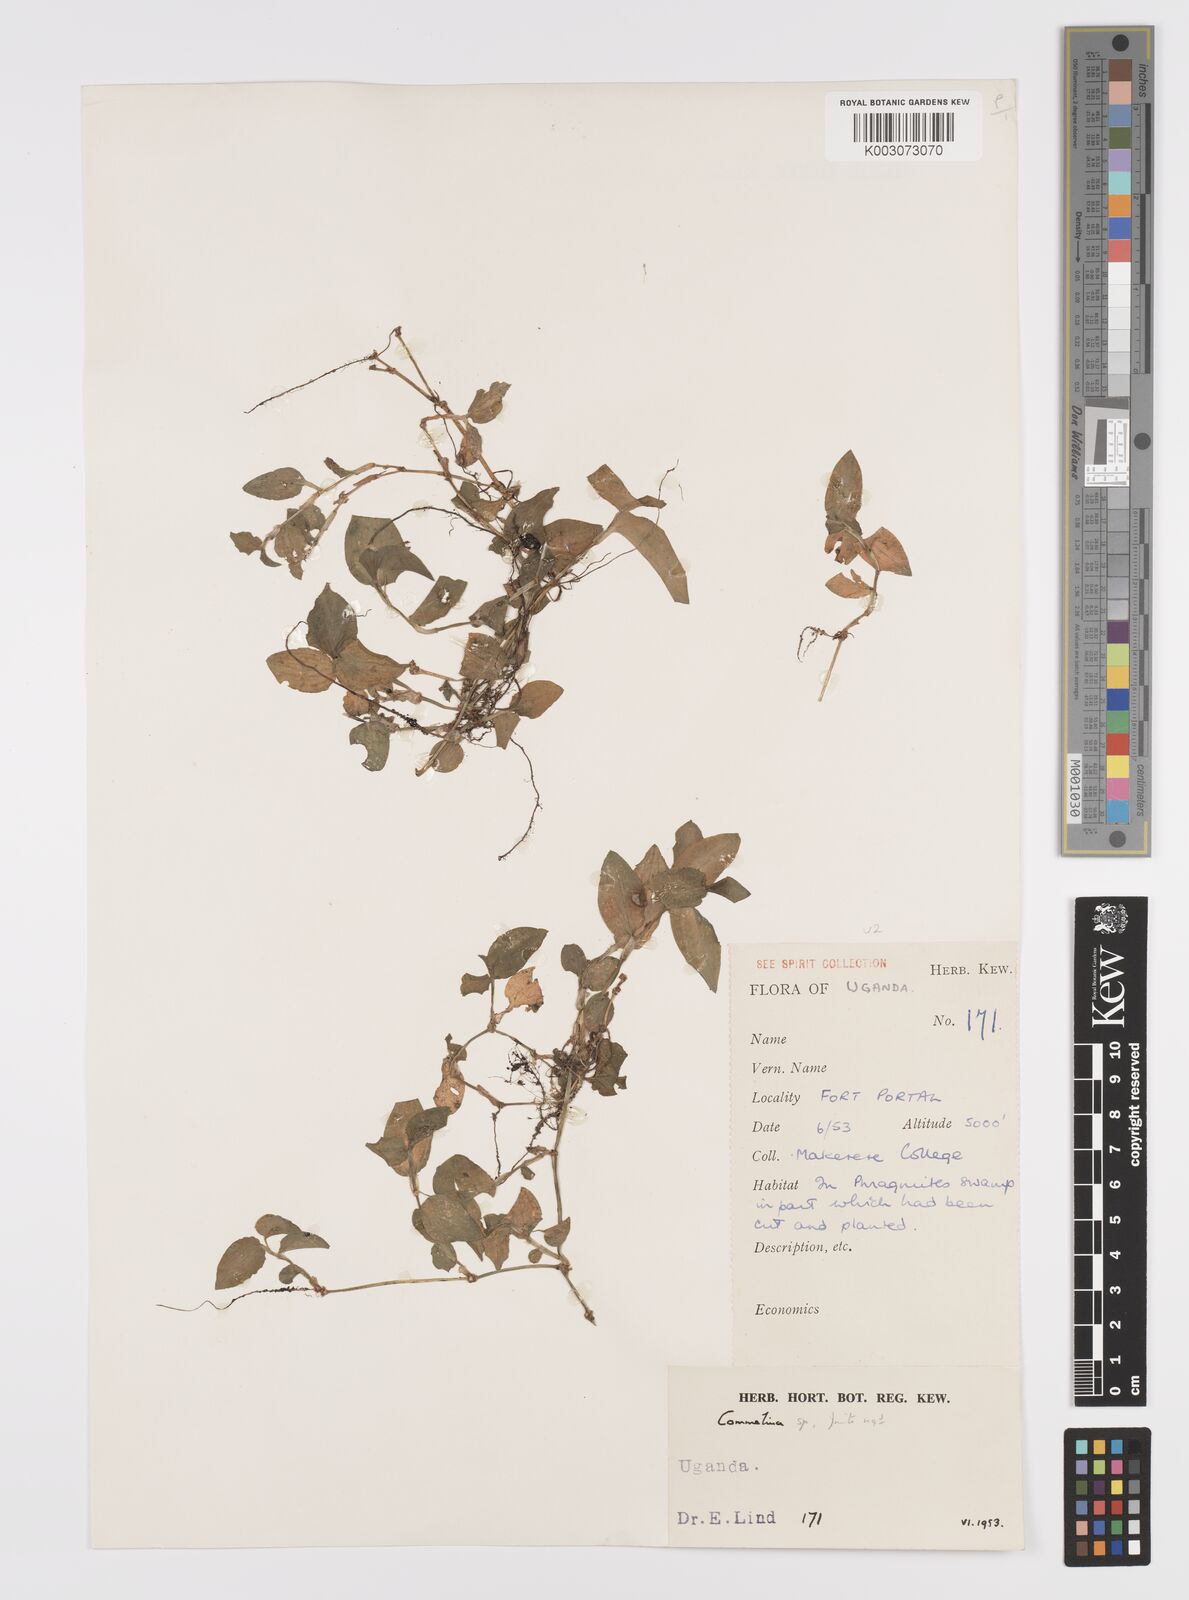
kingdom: Plantae
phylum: Tracheophyta
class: Liliopsida
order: Commelinales
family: Commelinaceae
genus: Commelina
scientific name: Commelina diffusa
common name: Climbing dayflower
